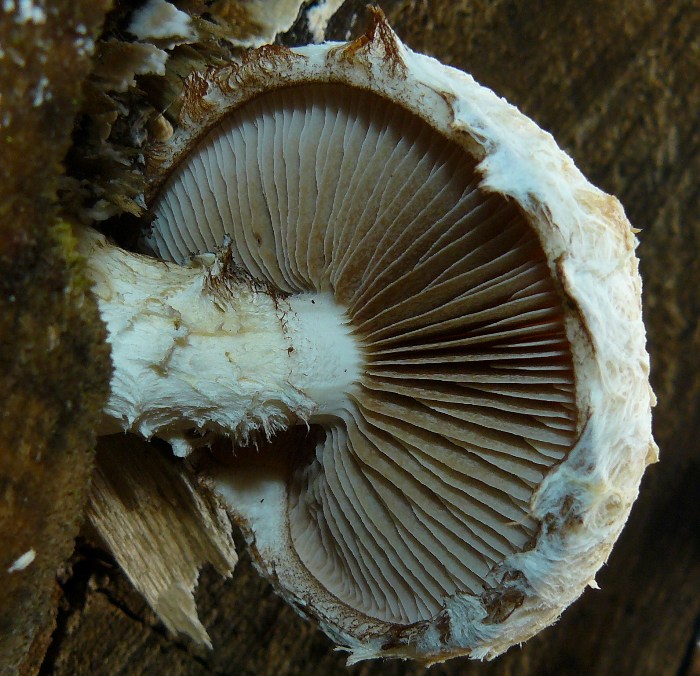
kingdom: Fungi
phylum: Basidiomycota
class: Agaricomycetes
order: Agaricales
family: Strophariaceae
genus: Pholiota
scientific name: Pholiota populnea
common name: poppel-kæmpeskælhat
